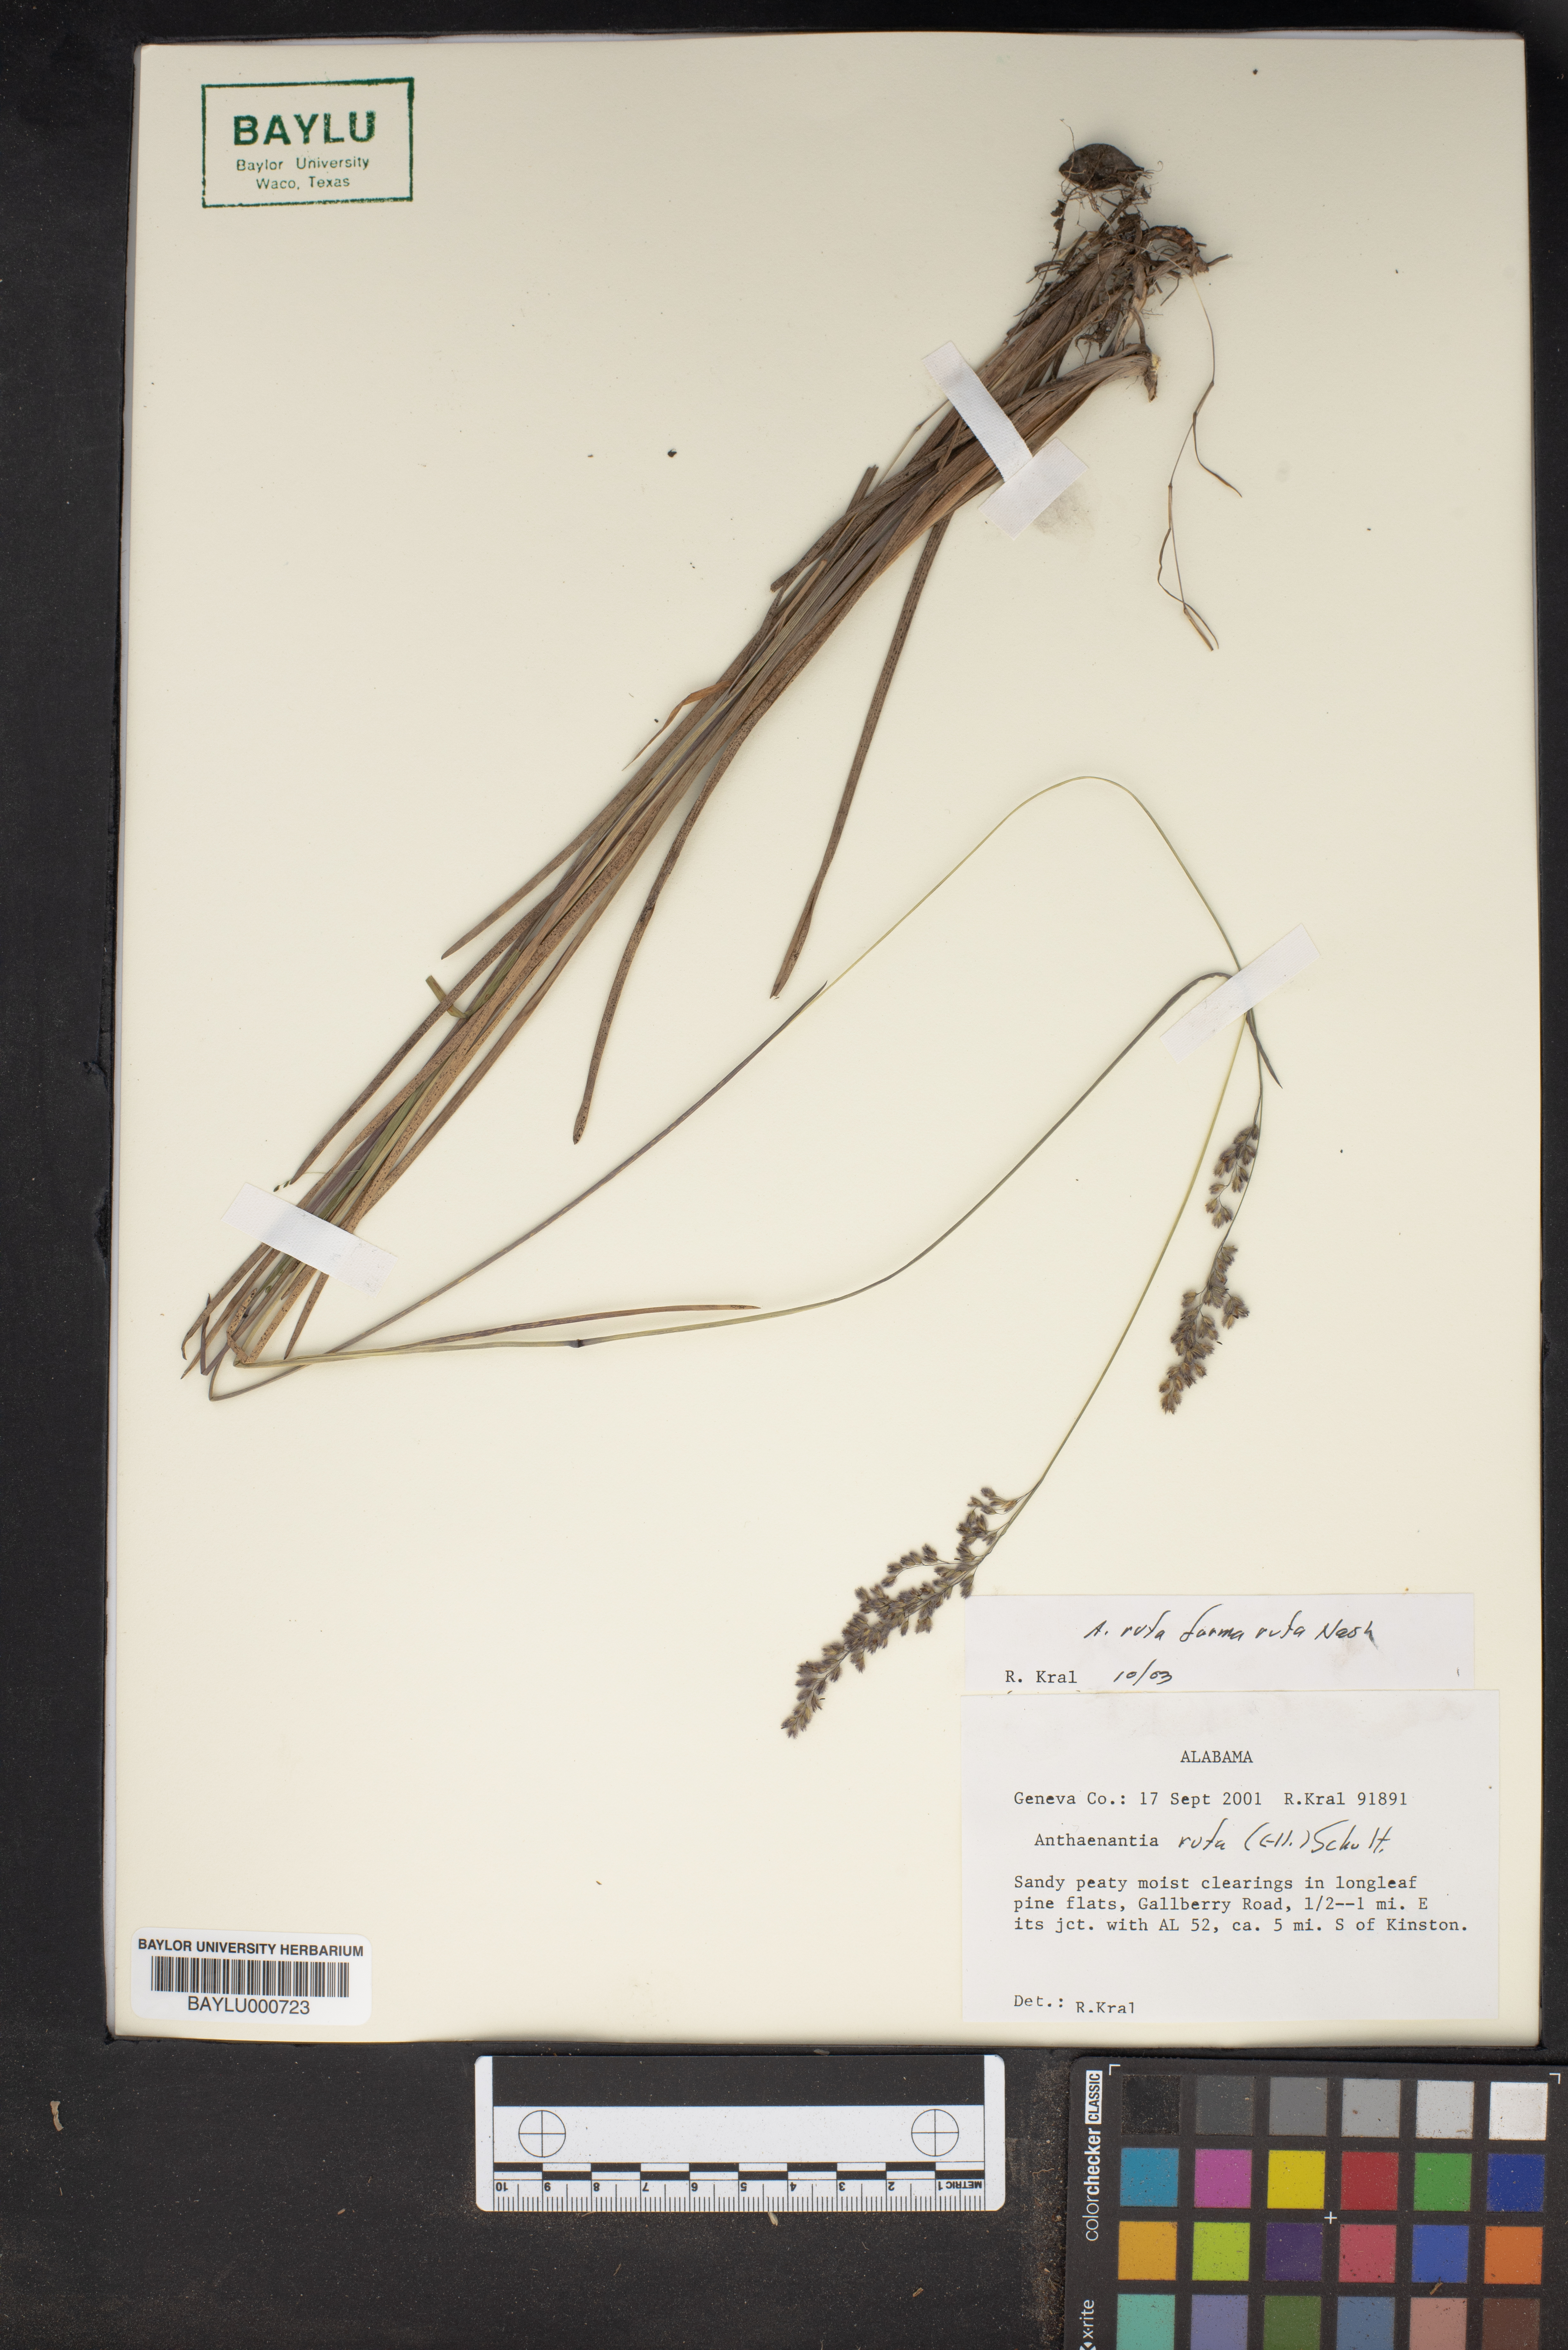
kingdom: Plantae
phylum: Tracheophyta
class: Liliopsida
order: Poales
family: Poaceae
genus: Anthenantia
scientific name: Anthenantia rufa
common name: Purple silkyscale
